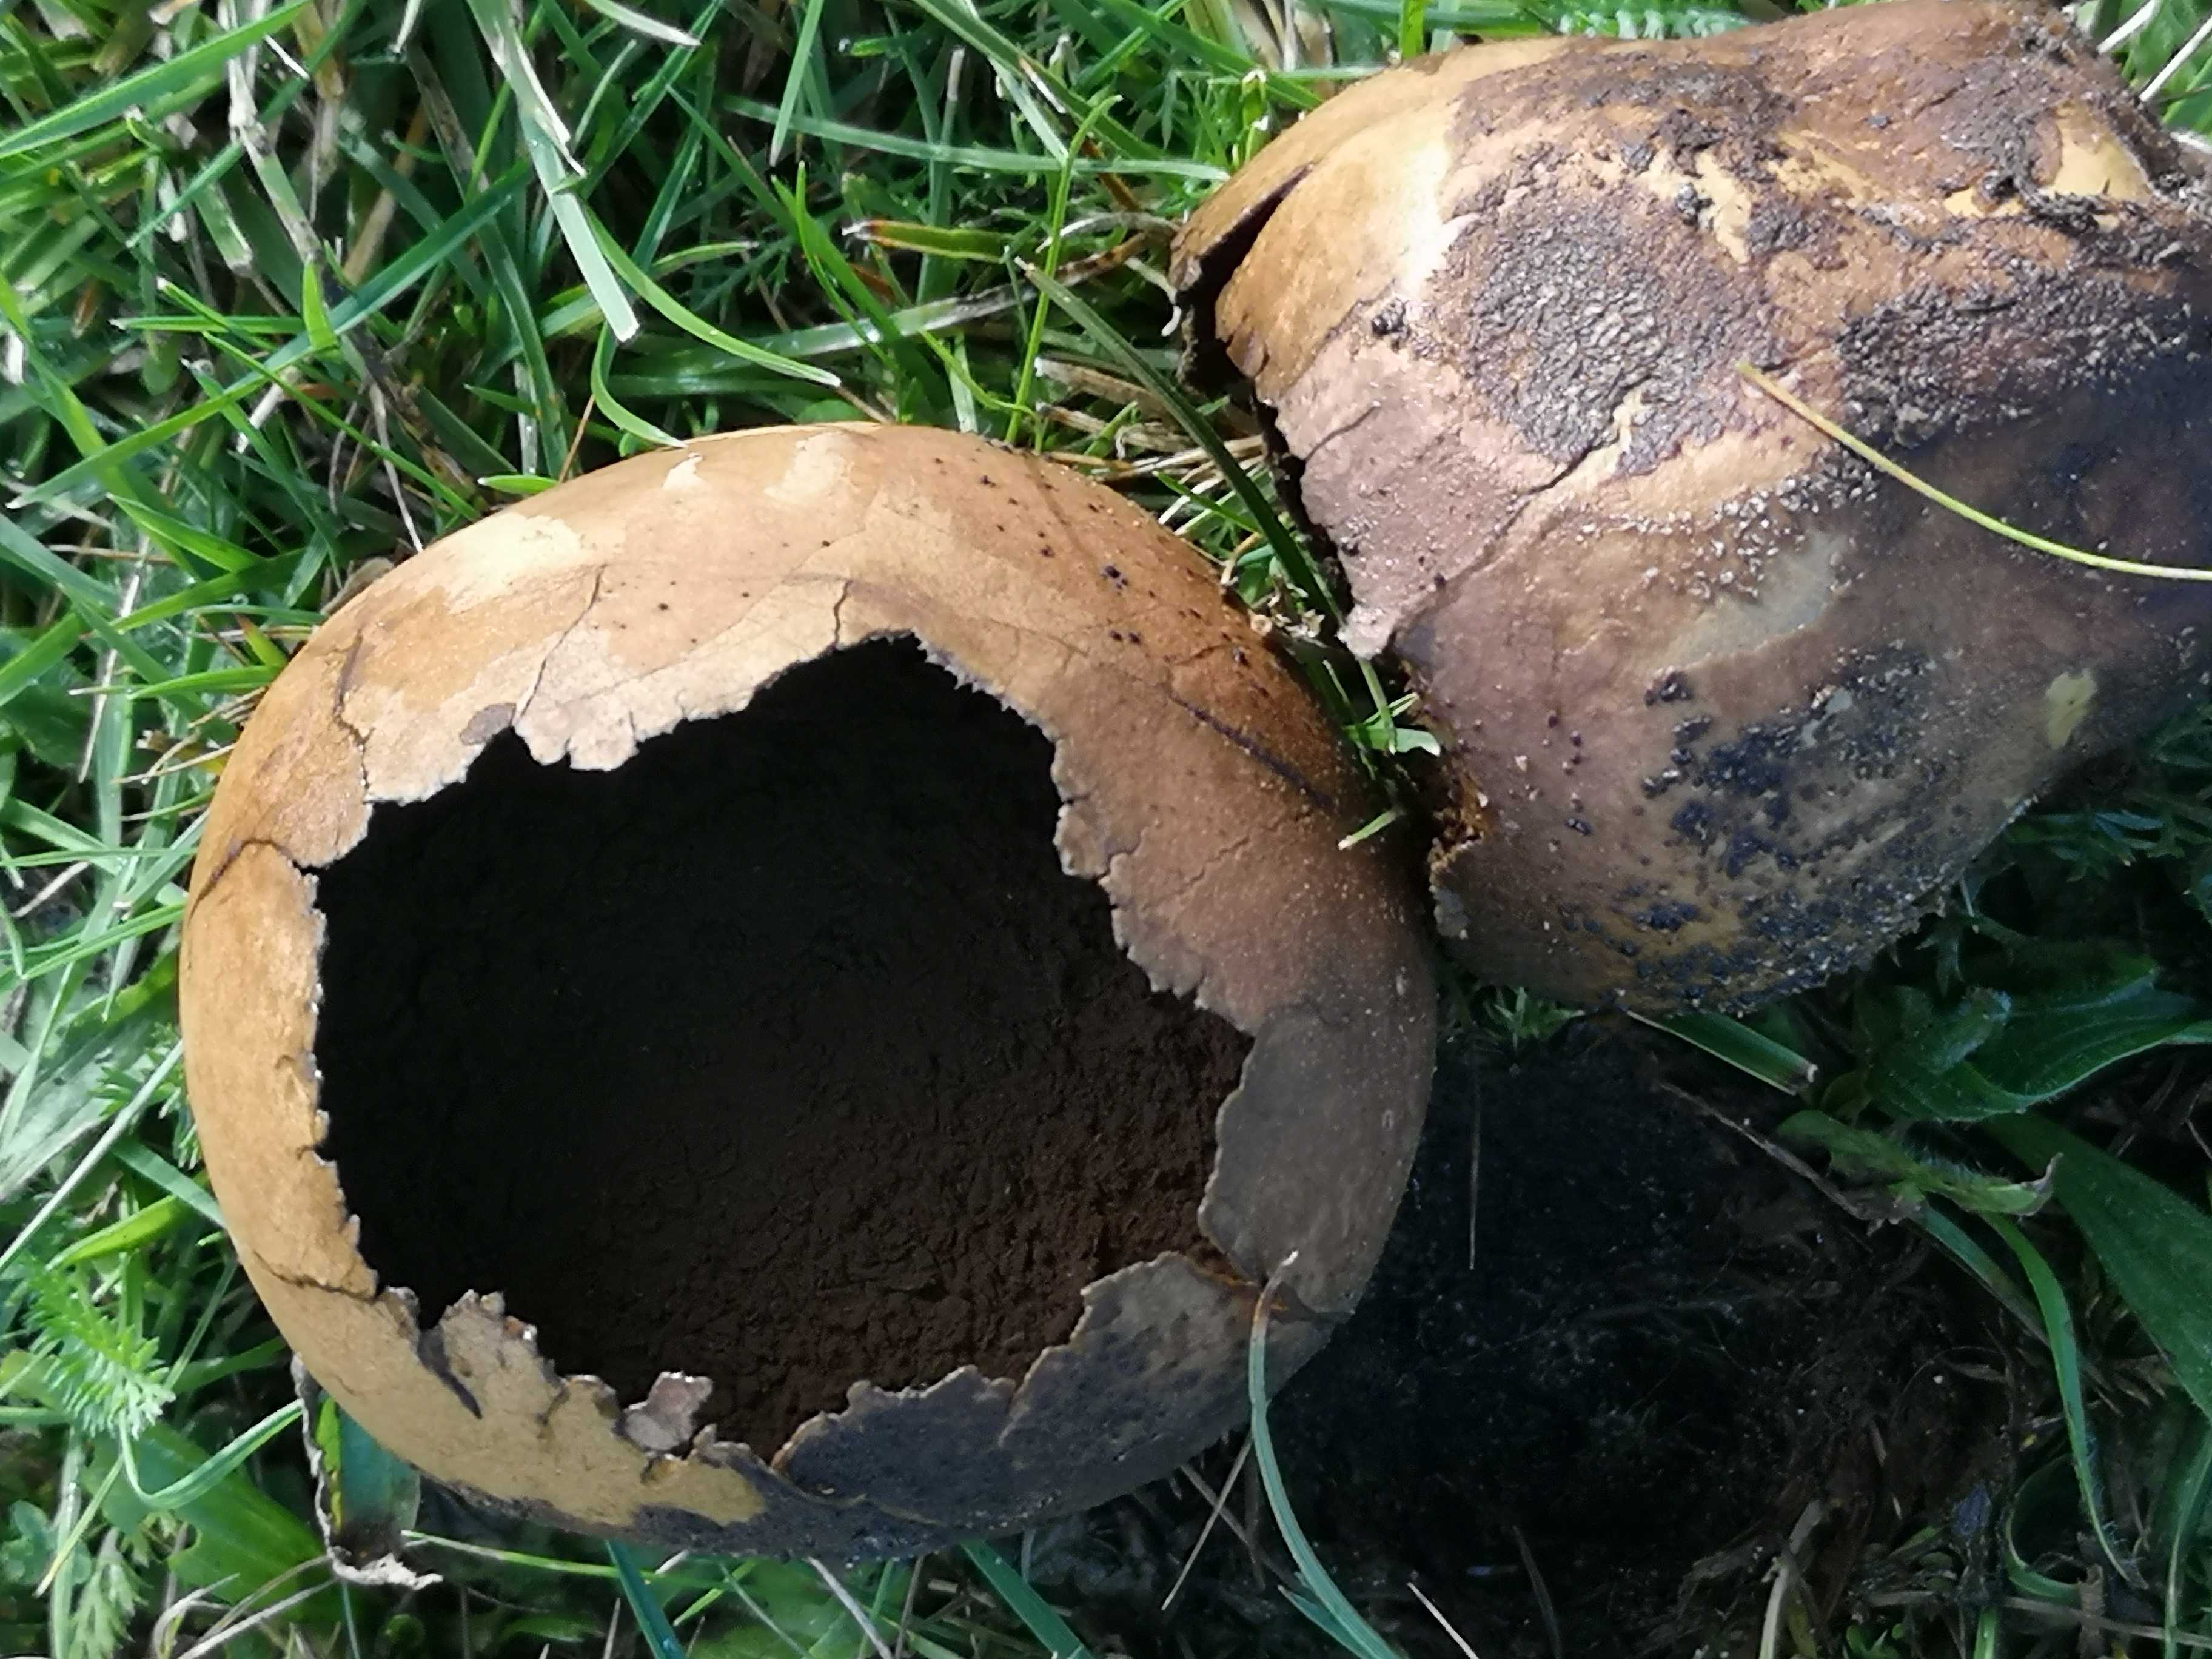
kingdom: Fungi
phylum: Basidiomycota
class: Agaricomycetes
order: Agaricales
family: Lycoperdaceae
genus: Bovistella
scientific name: Bovistella utriformis
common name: skællet støvbold
